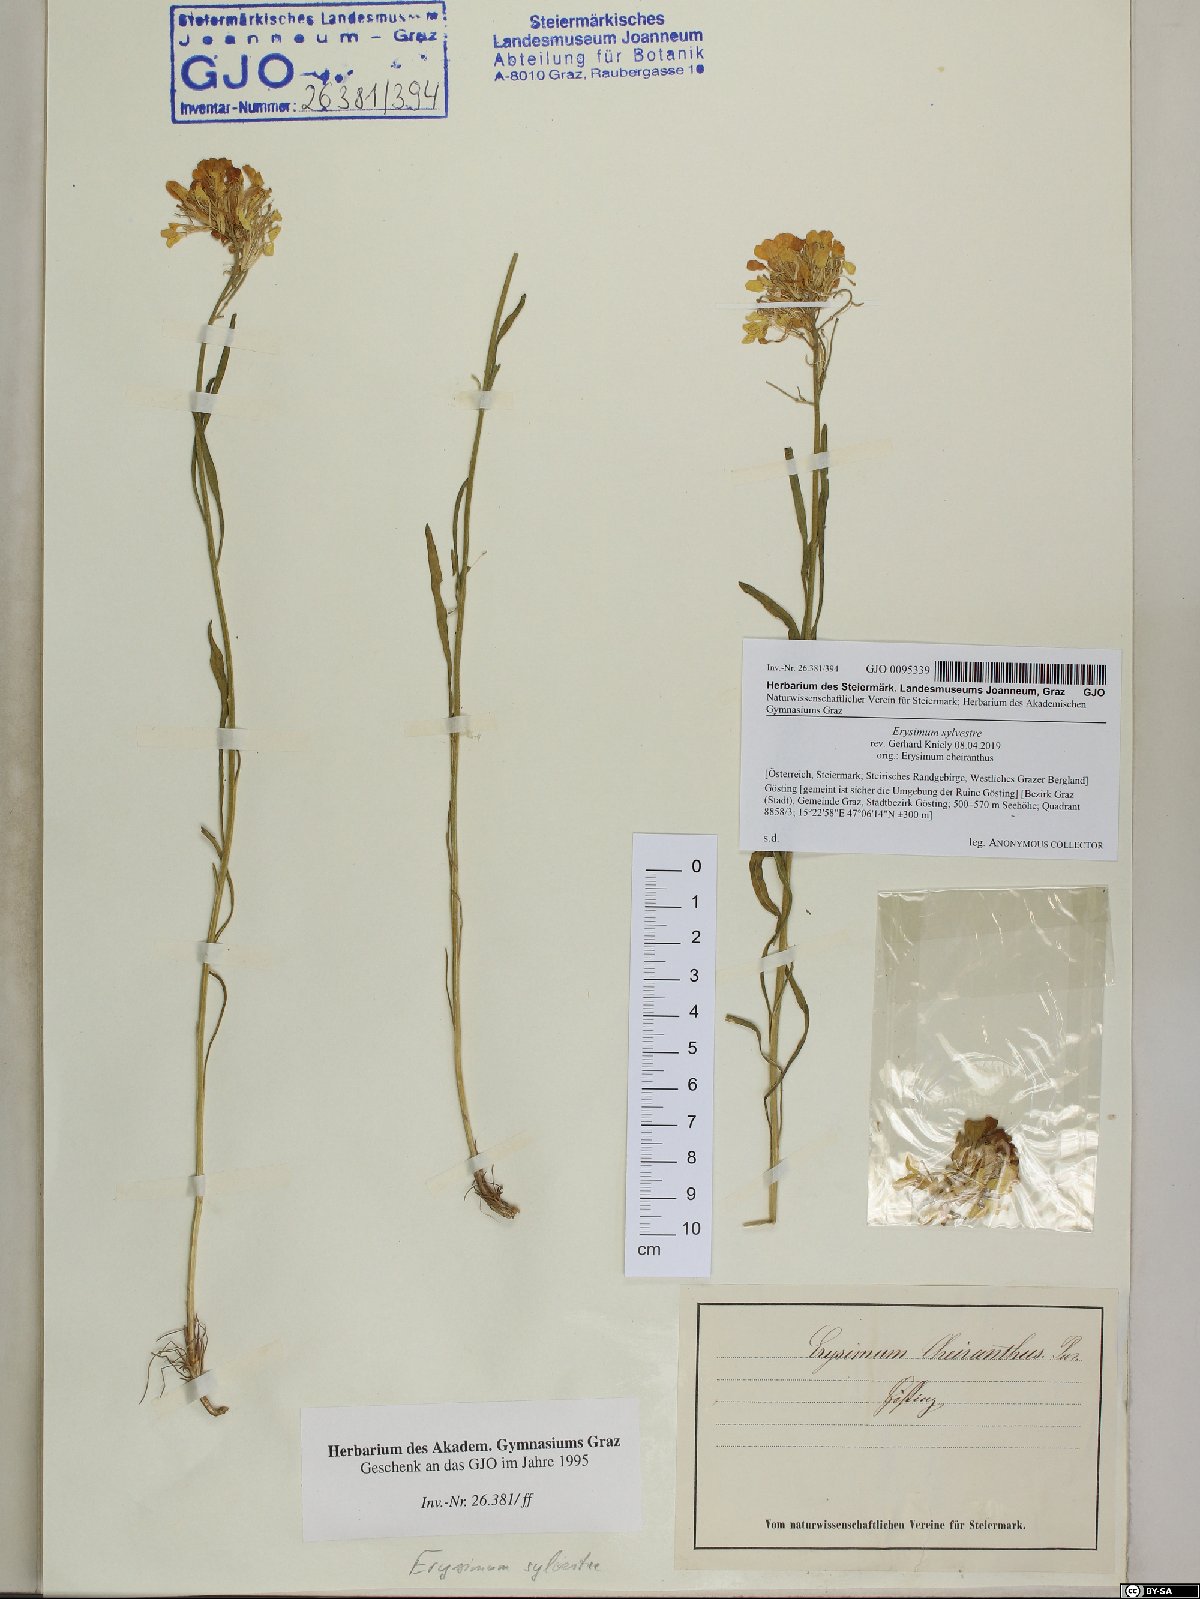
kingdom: Plantae
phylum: Tracheophyta
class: Magnoliopsida
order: Brassicales
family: Brassicaceae
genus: Erysimum
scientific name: Erysimum sylvestre
